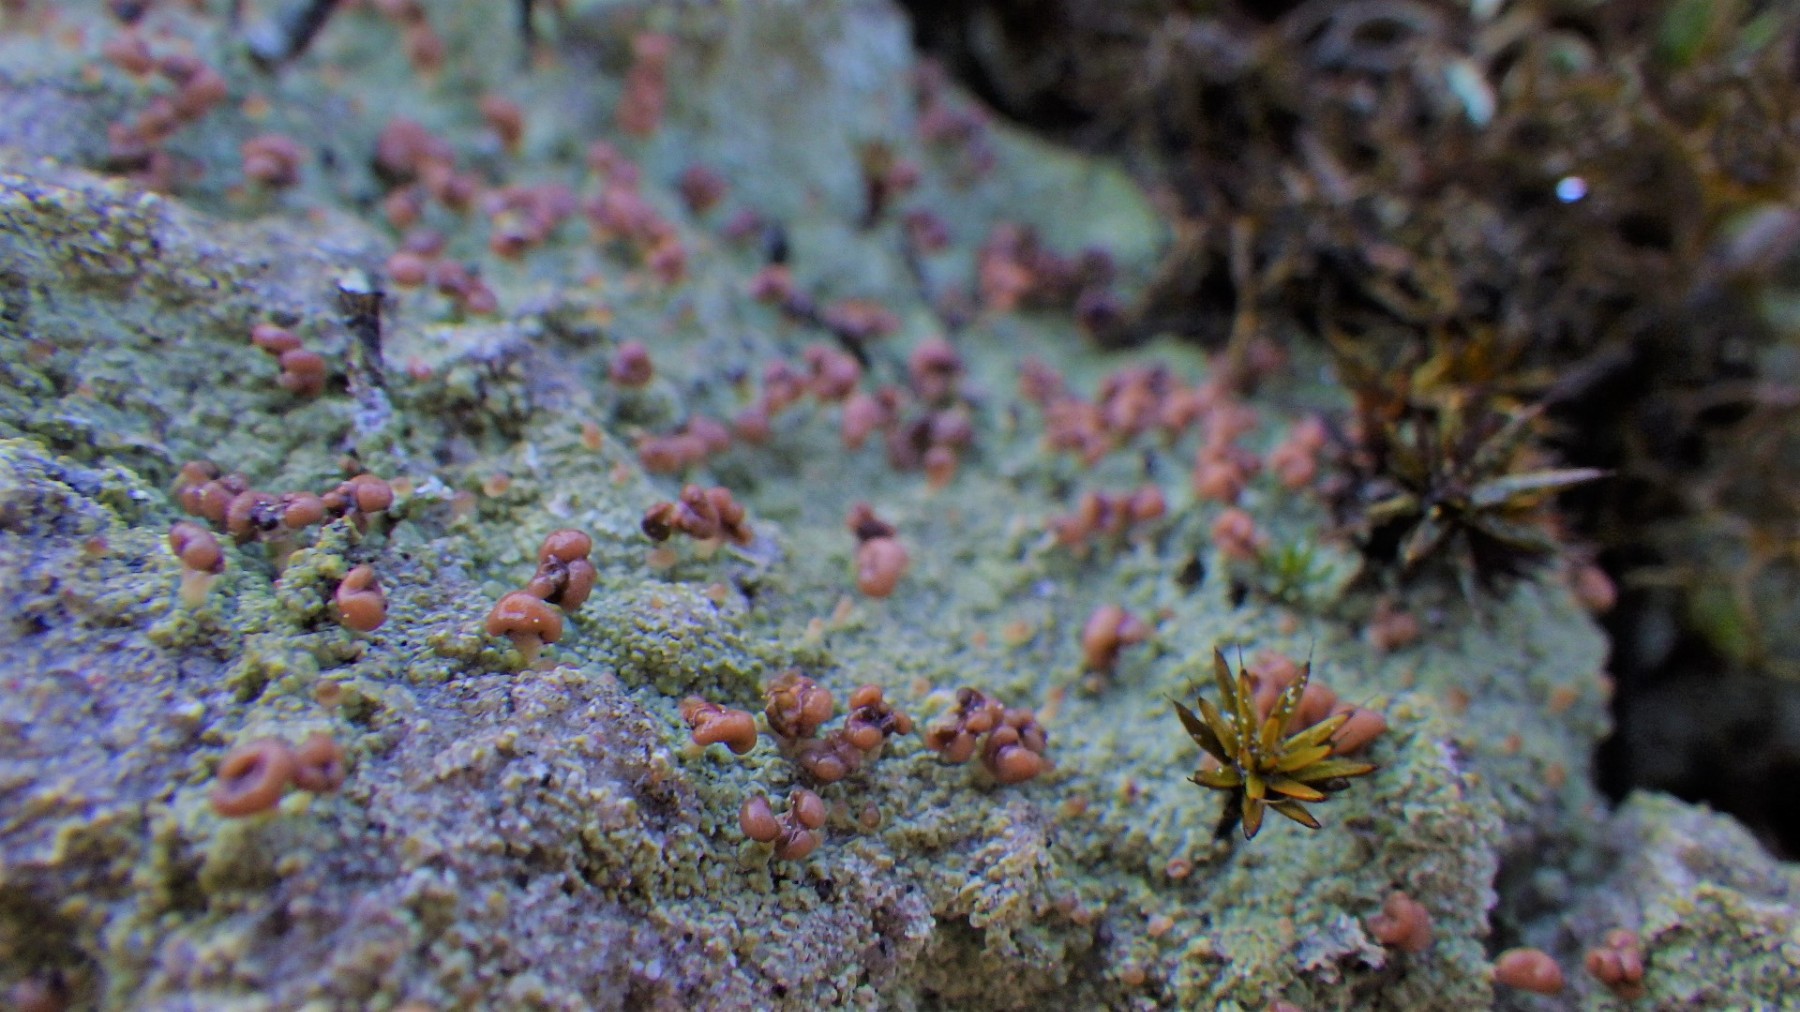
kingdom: Fungi
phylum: Ascomycota
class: Lecanoromycetes
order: Baeomycetales
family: Baeomycetaceae
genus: Baeomyces
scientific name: Baeomyces rufus
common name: rødbrun svampelav
